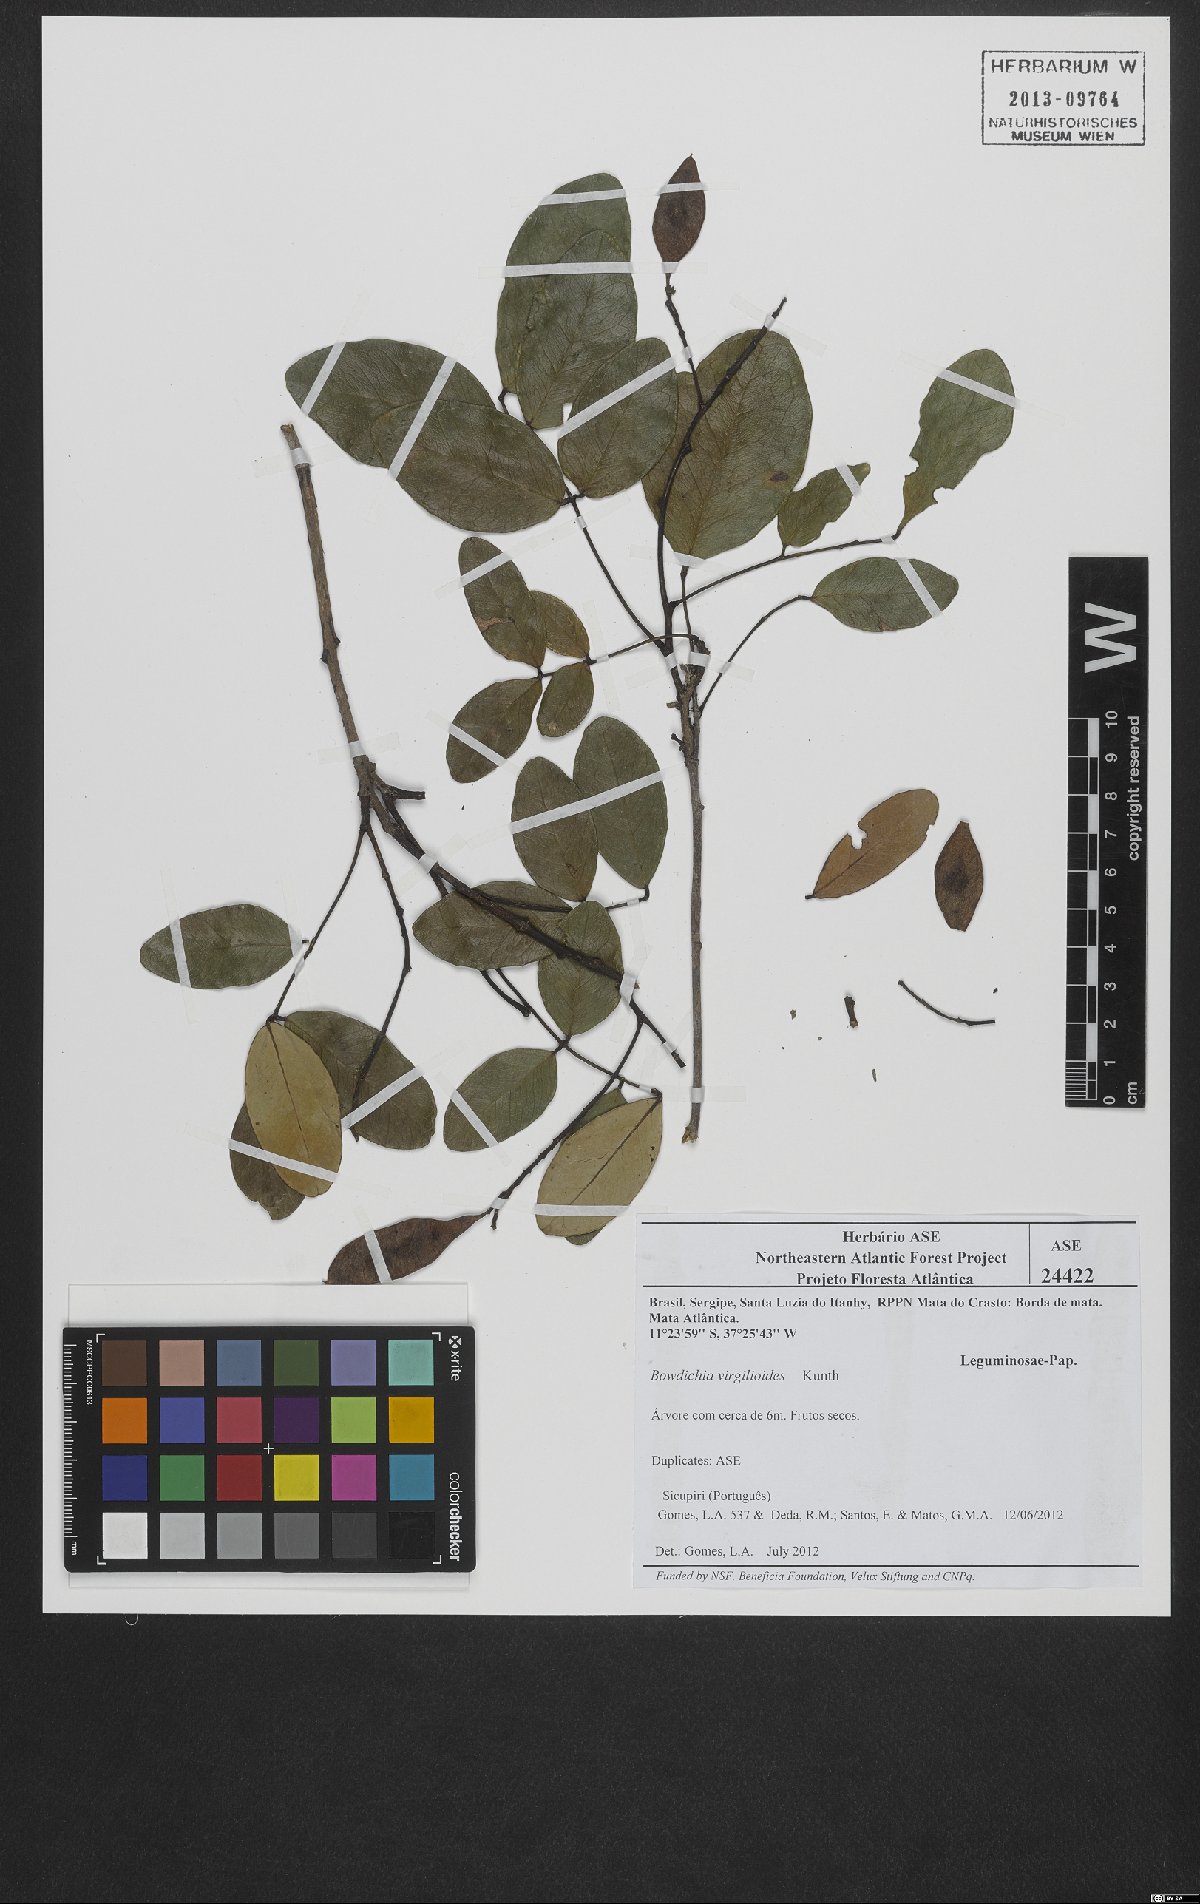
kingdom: Plantae
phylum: Tracheophyta
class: Magnoliopsida
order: Fabales
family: Fabaceae
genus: Bowdichia
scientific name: Bowdichia virgilioides
